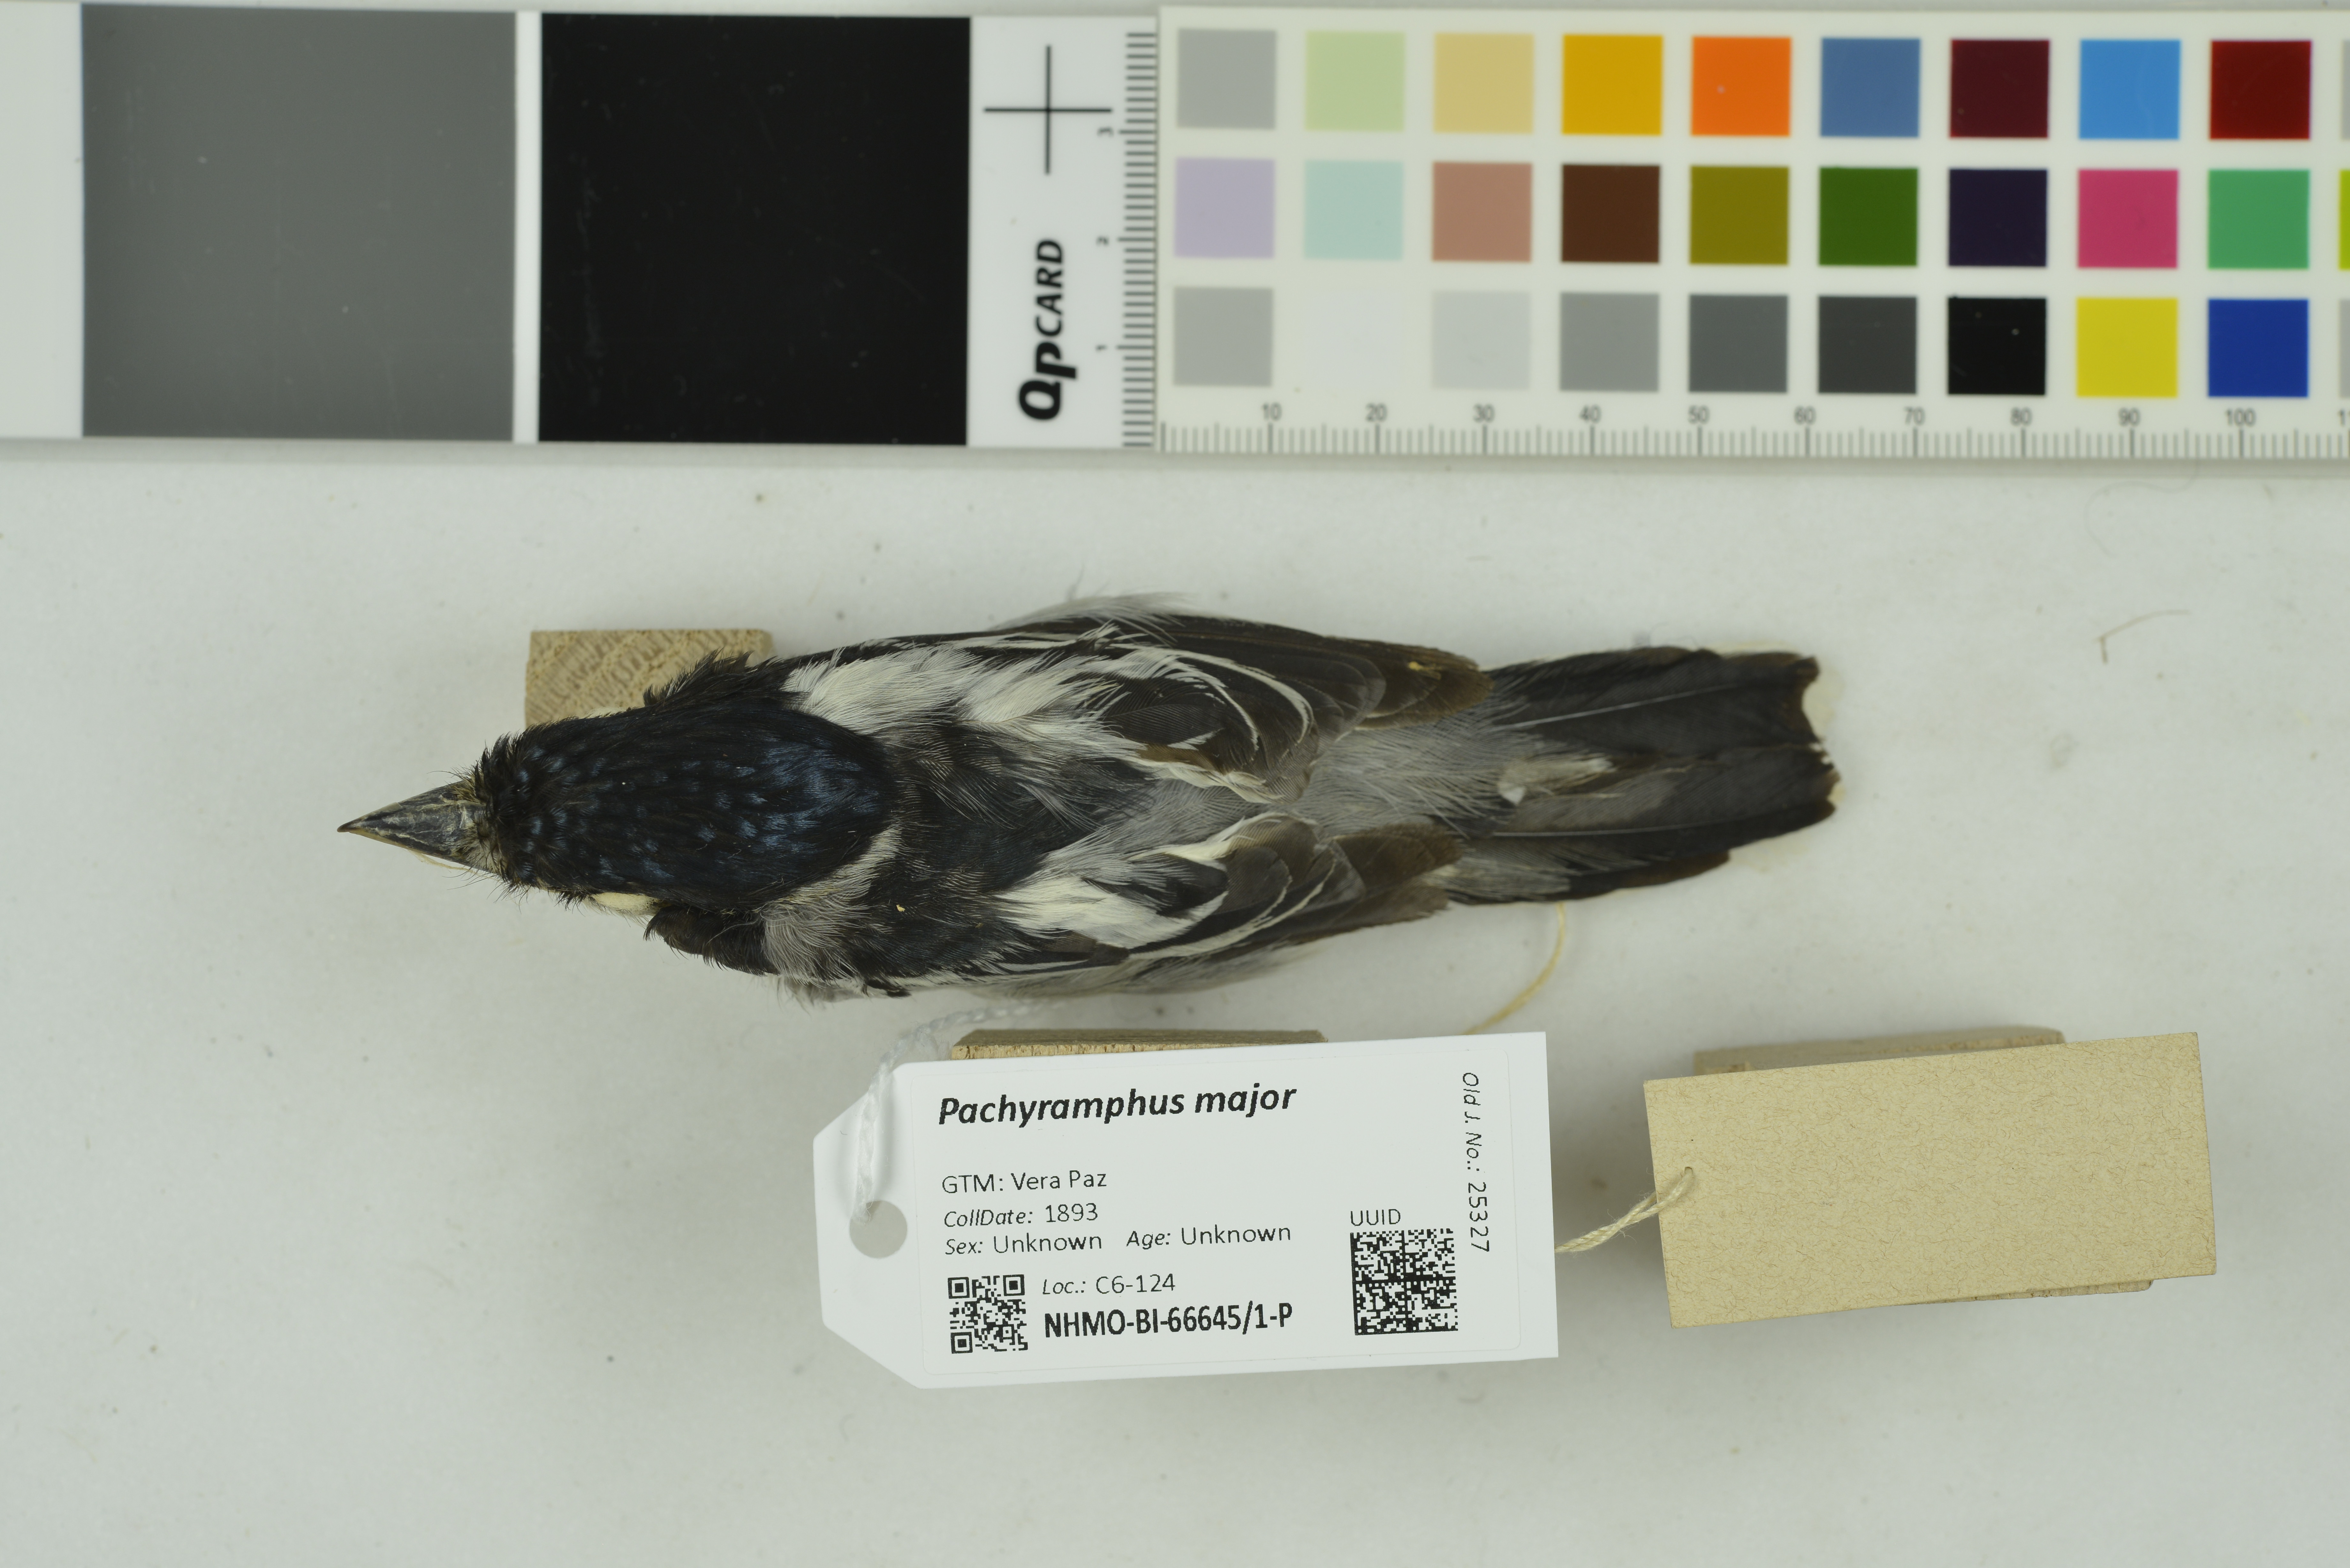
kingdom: Animalia
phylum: Chordata
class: Aves
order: Passeriformes
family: Cotingidae
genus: Pachyramphus
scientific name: Pachyramphus major
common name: Gray-collared becard
